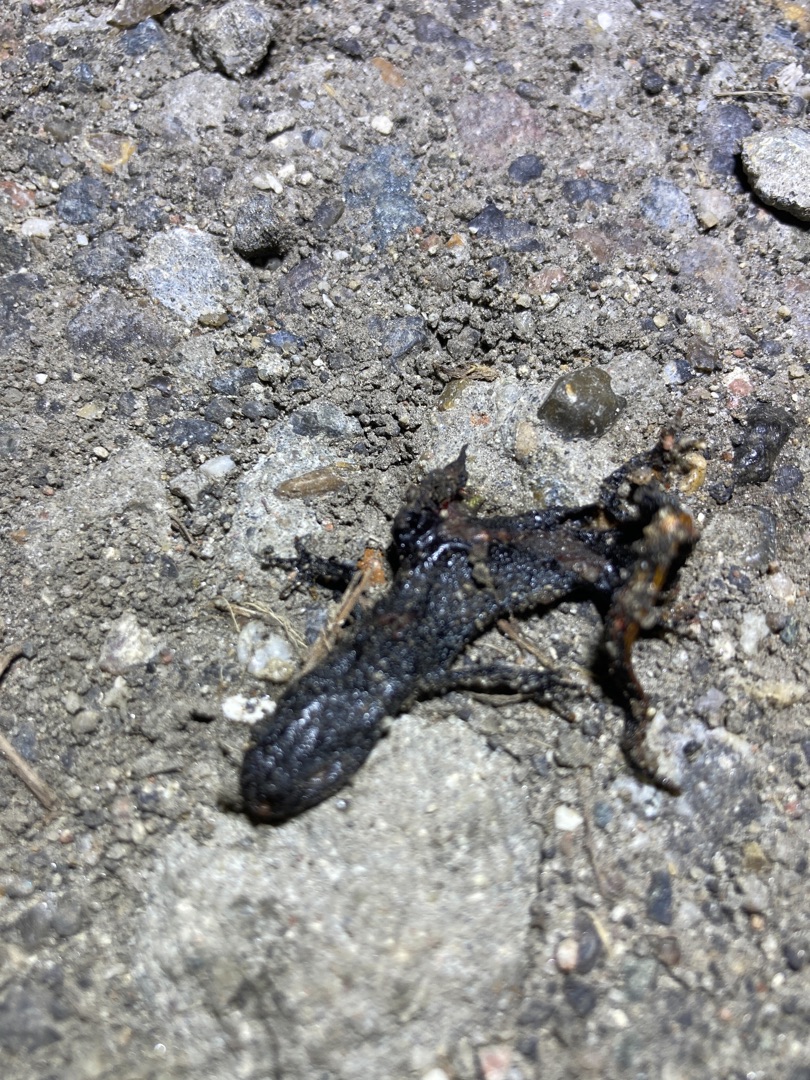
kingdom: Animalia
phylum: Chordata
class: Amphibia
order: Caudata
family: Salamandridae
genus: Triturus
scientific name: Triturus cristatus
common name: Stor vandsalamander
